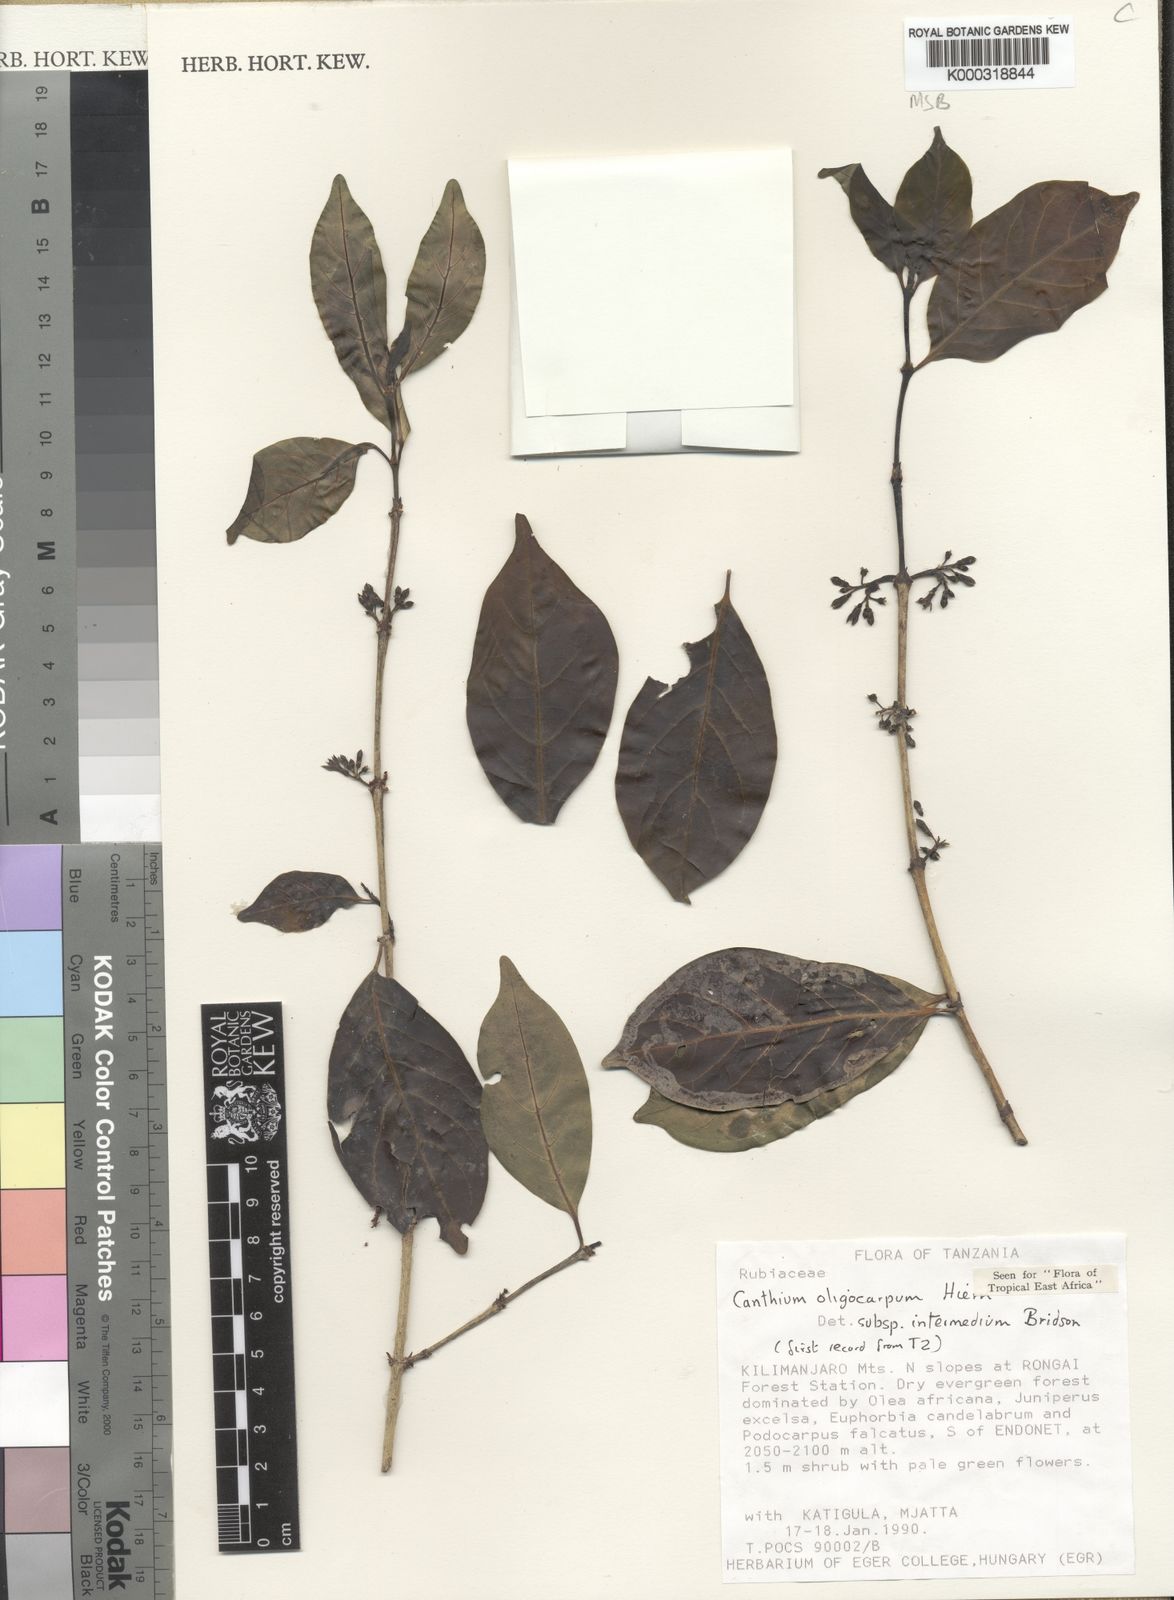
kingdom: Plantae
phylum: Tracheophyta
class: Magnoliopsida
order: Gentianales
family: Rubiaceae
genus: Canthium
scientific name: Canthium oligocarpum
